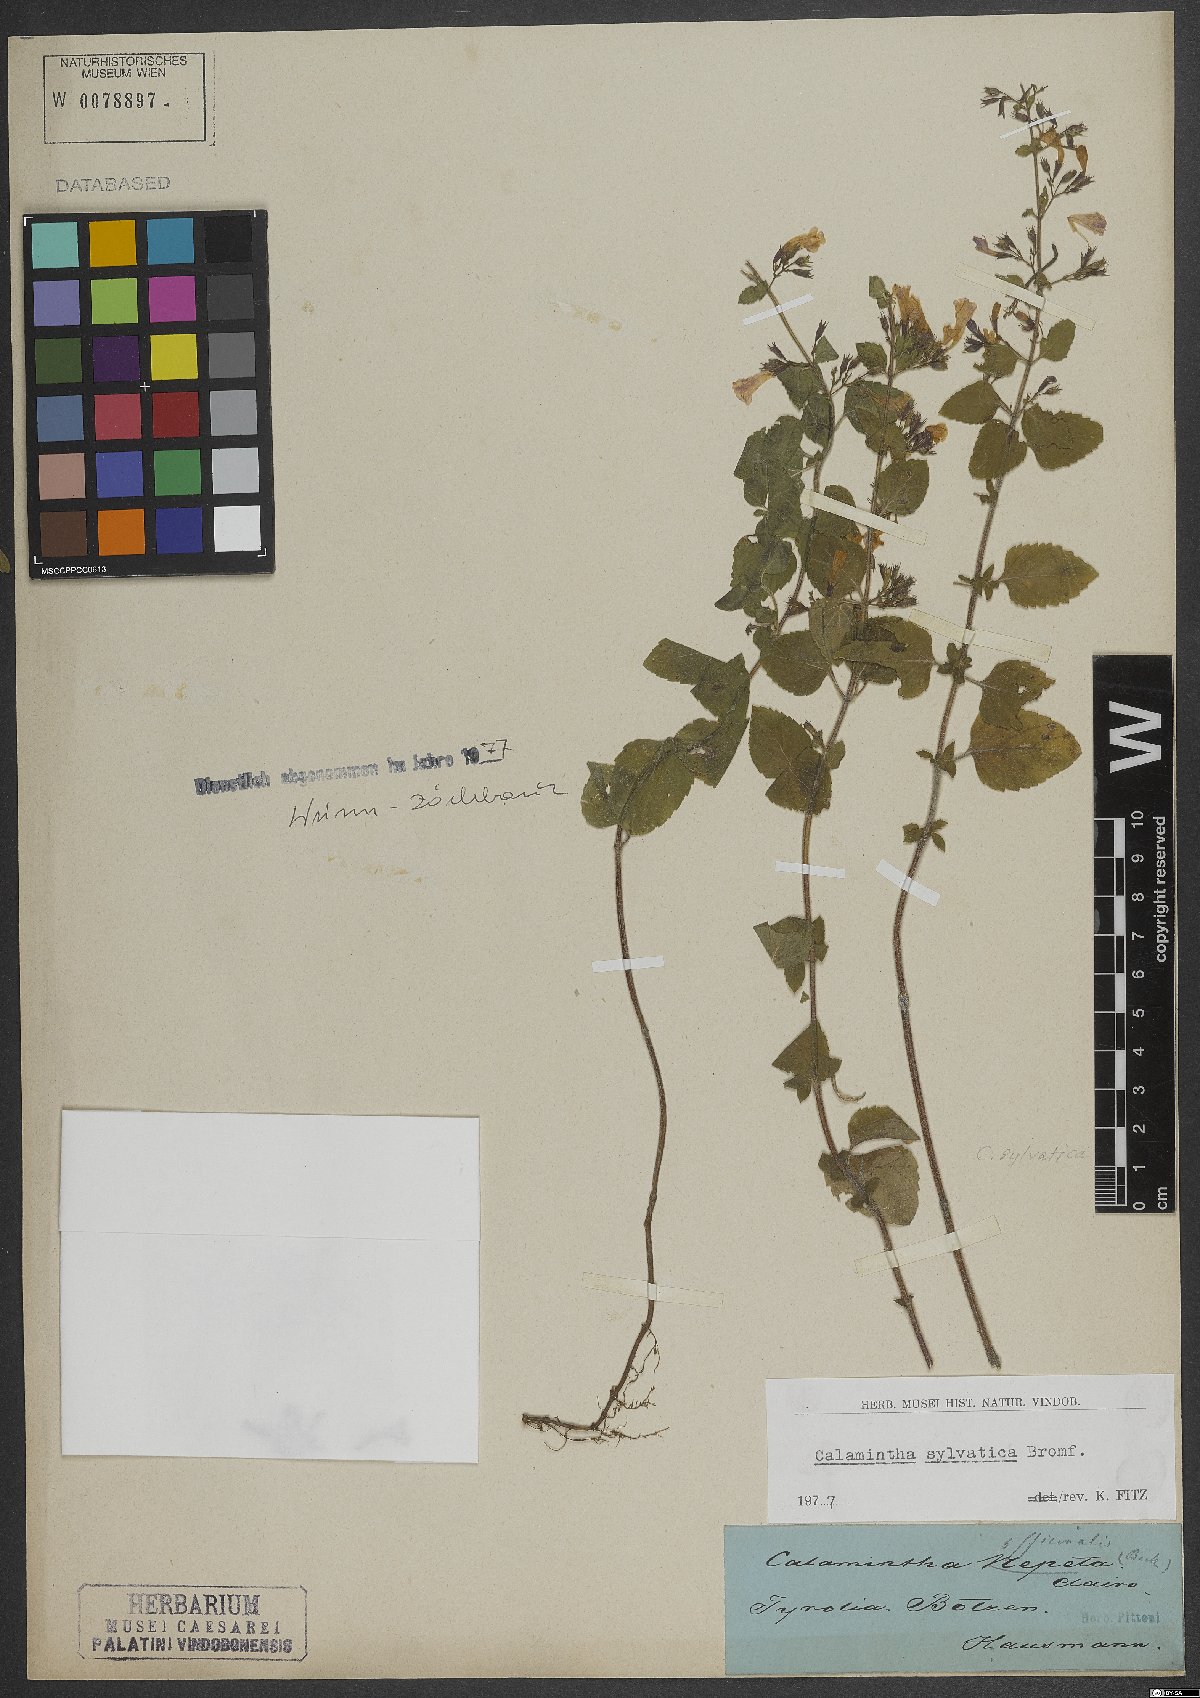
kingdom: Plantae
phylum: Tracheophyta
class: Magnoliopsida
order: Lamiales
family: Lamiaceae
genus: Clinopodium
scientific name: Clinopodium menthifolium
